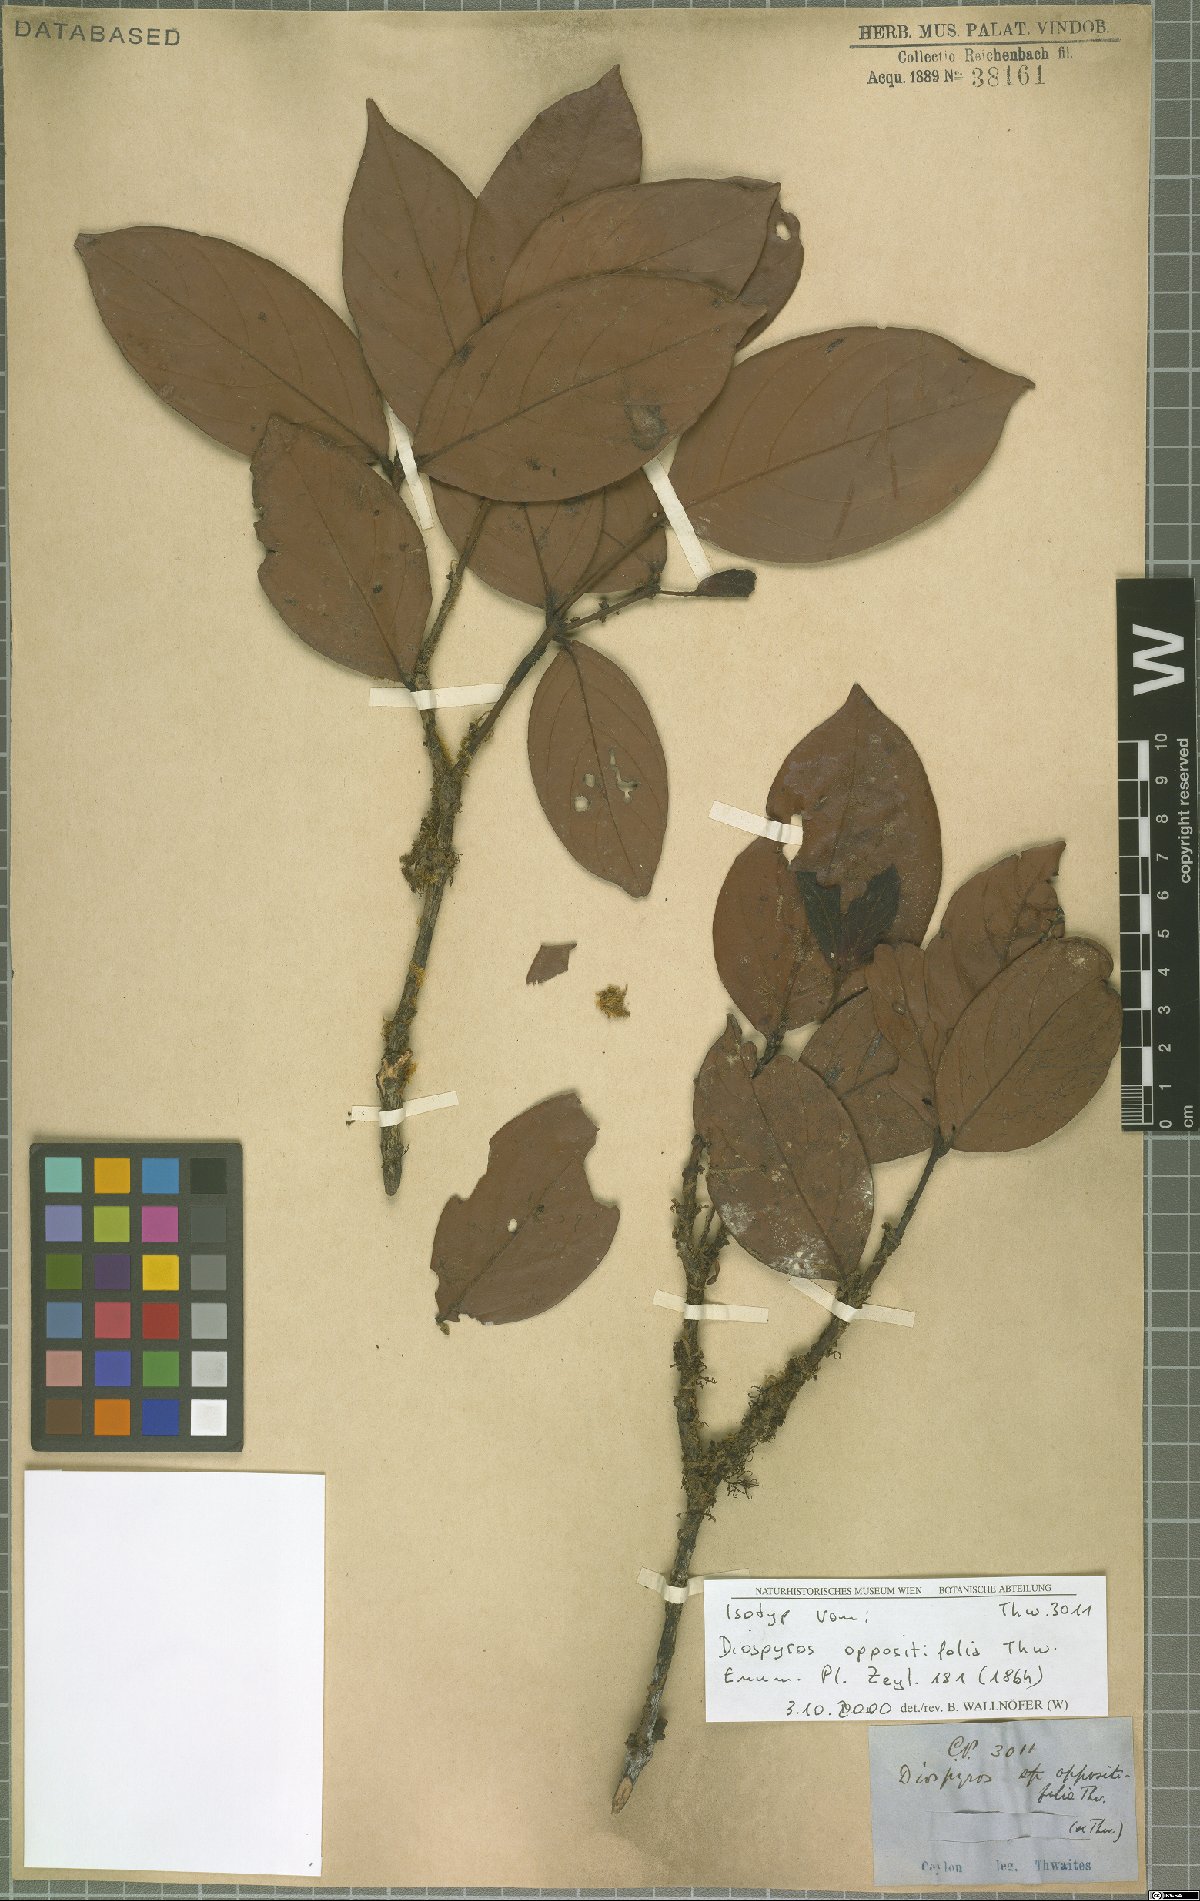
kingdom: Plantae
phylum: Tracheophyta
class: Magnoliopsida
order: Ericales
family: Ebenaceae
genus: Diospyros
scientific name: Diospyros oppositifolia
